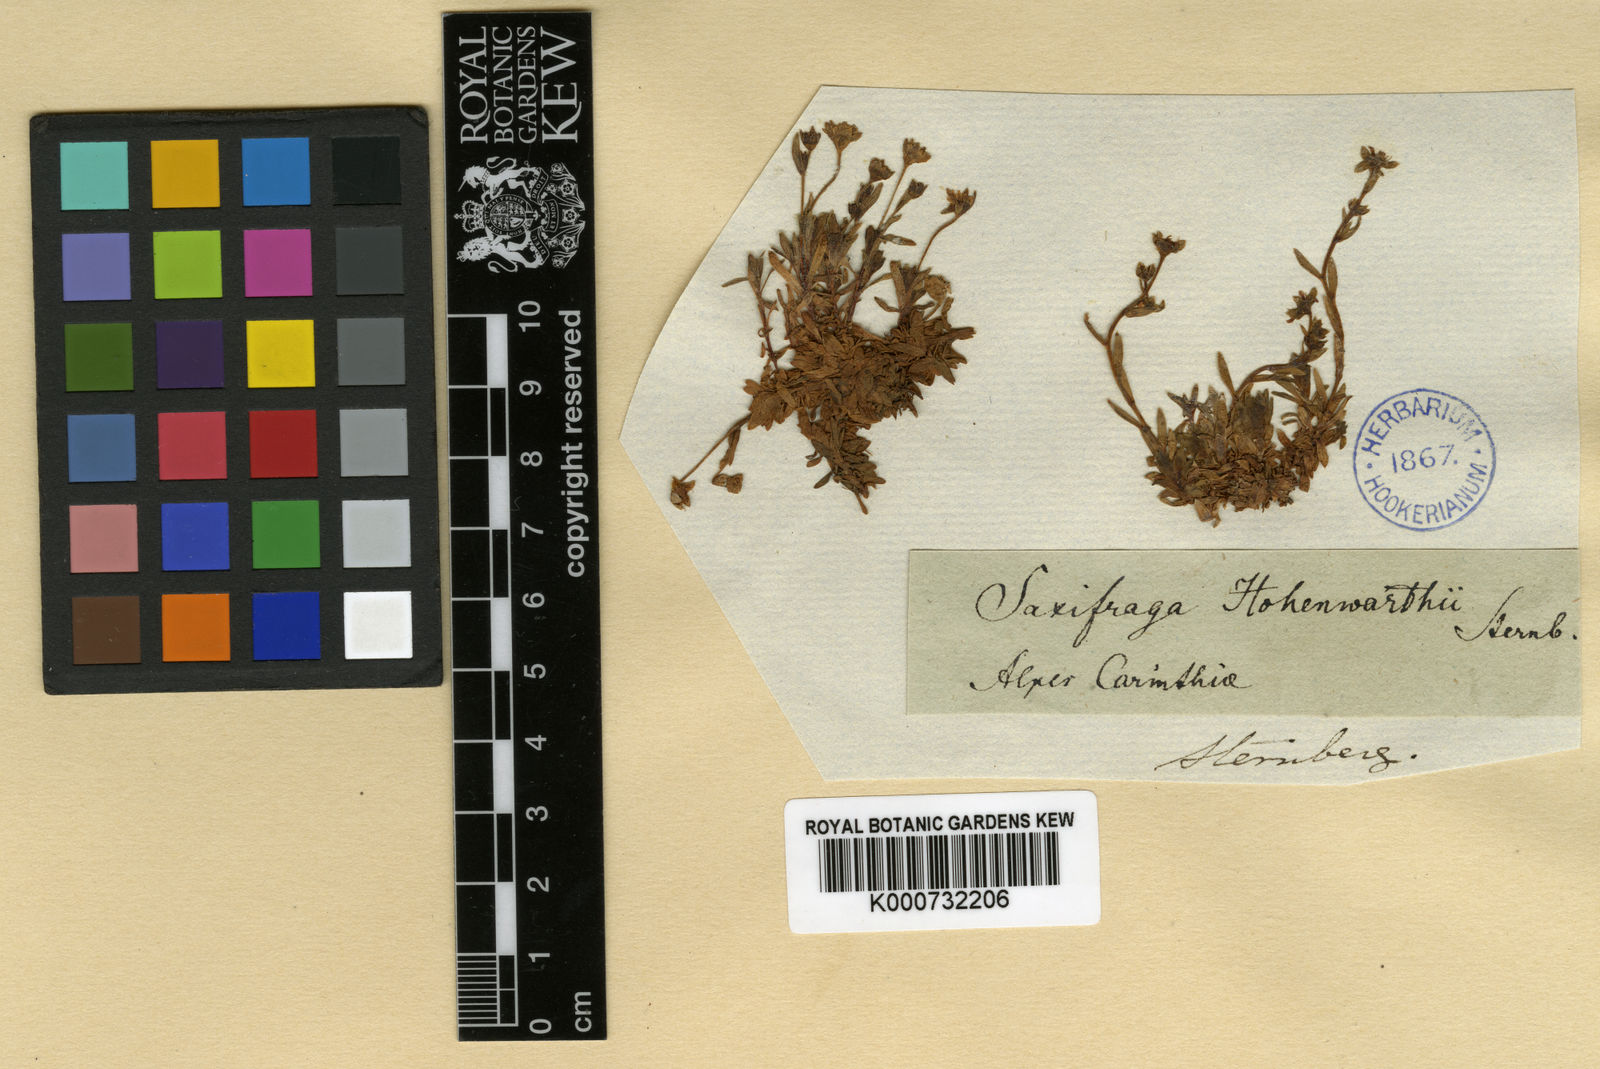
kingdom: Plantae
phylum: Tracheophyta
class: Magnoliopsida
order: Saxifragales
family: Saxifragaceae
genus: Saxifraga
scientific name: Saxifraga hohenwartii
